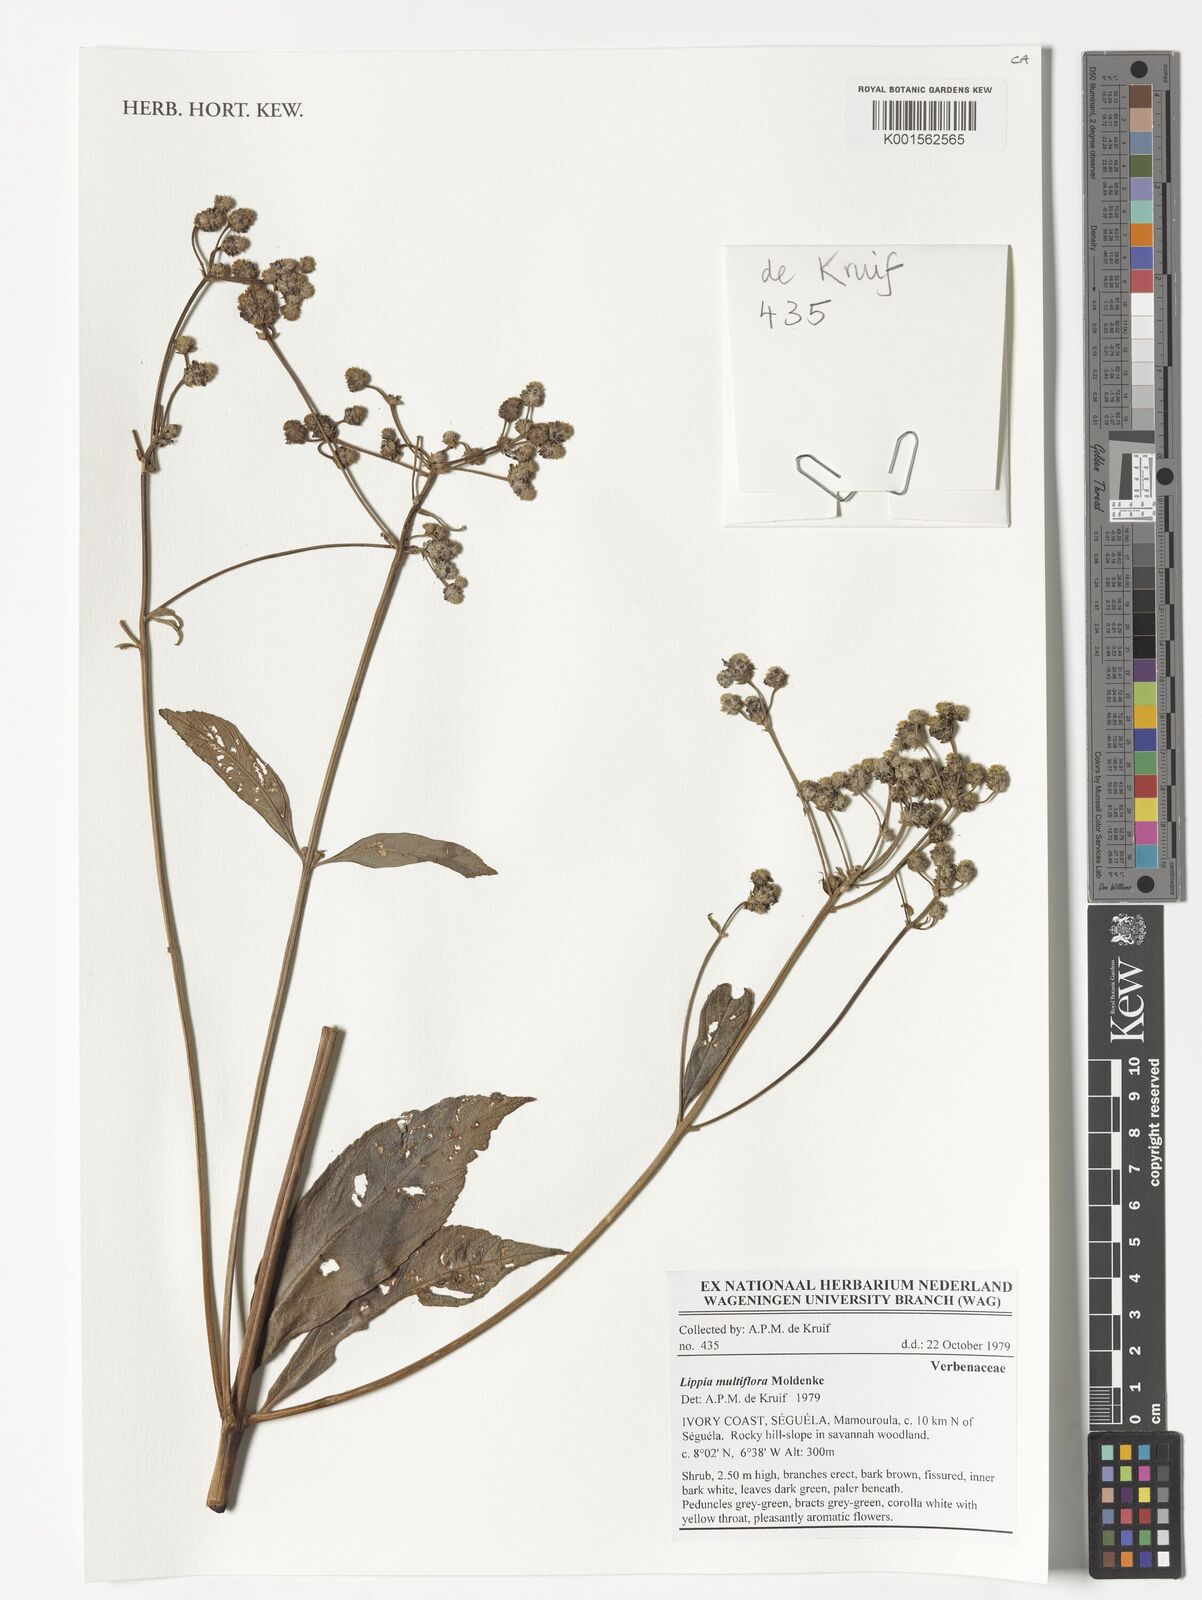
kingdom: Plantae
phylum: Tracheophyta
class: Magnoliopsida
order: Lamiales
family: Verbenaceae
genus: Lippia
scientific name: Lippia multiflora
